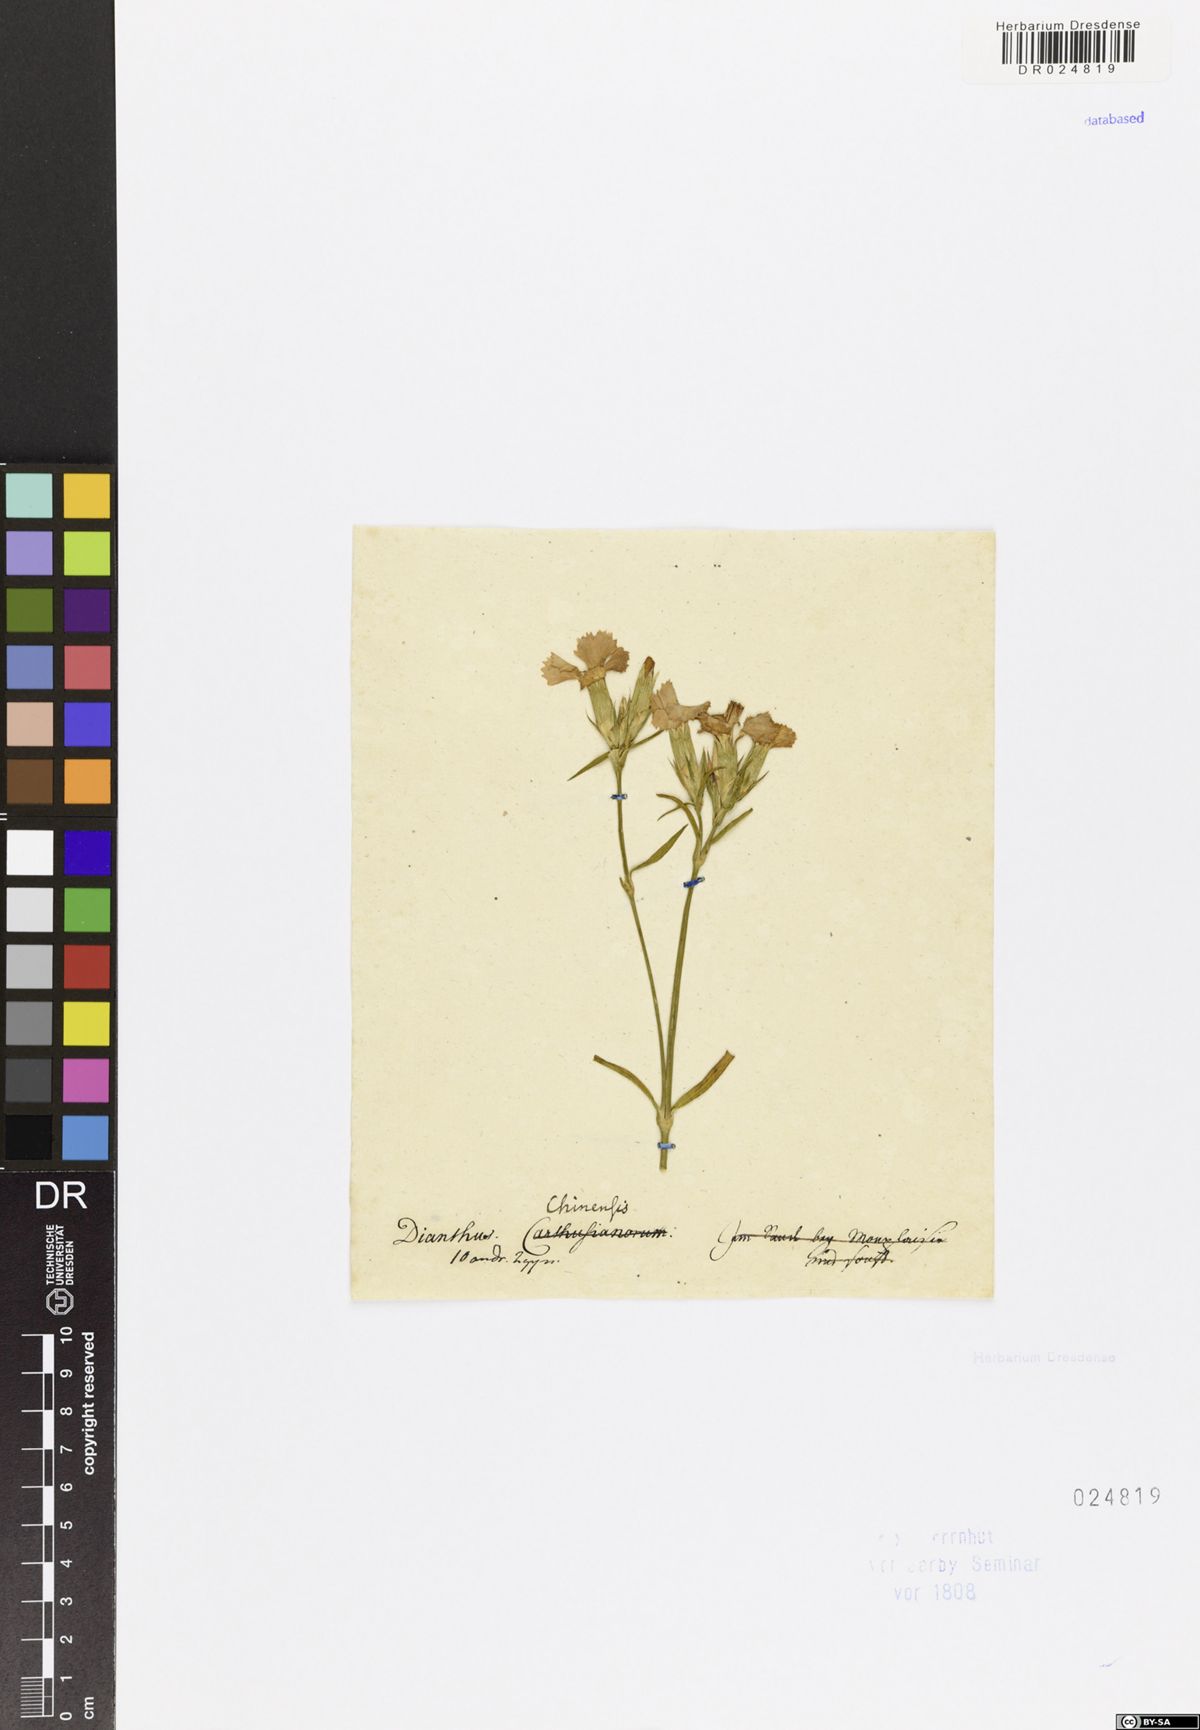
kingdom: Plantae
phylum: Tracheophyta
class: Magnoliopsida
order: Caryophyllales
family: Caryophyllaceae
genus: Dianthus
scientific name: Dianthus chinensis
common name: Rainbow pink
